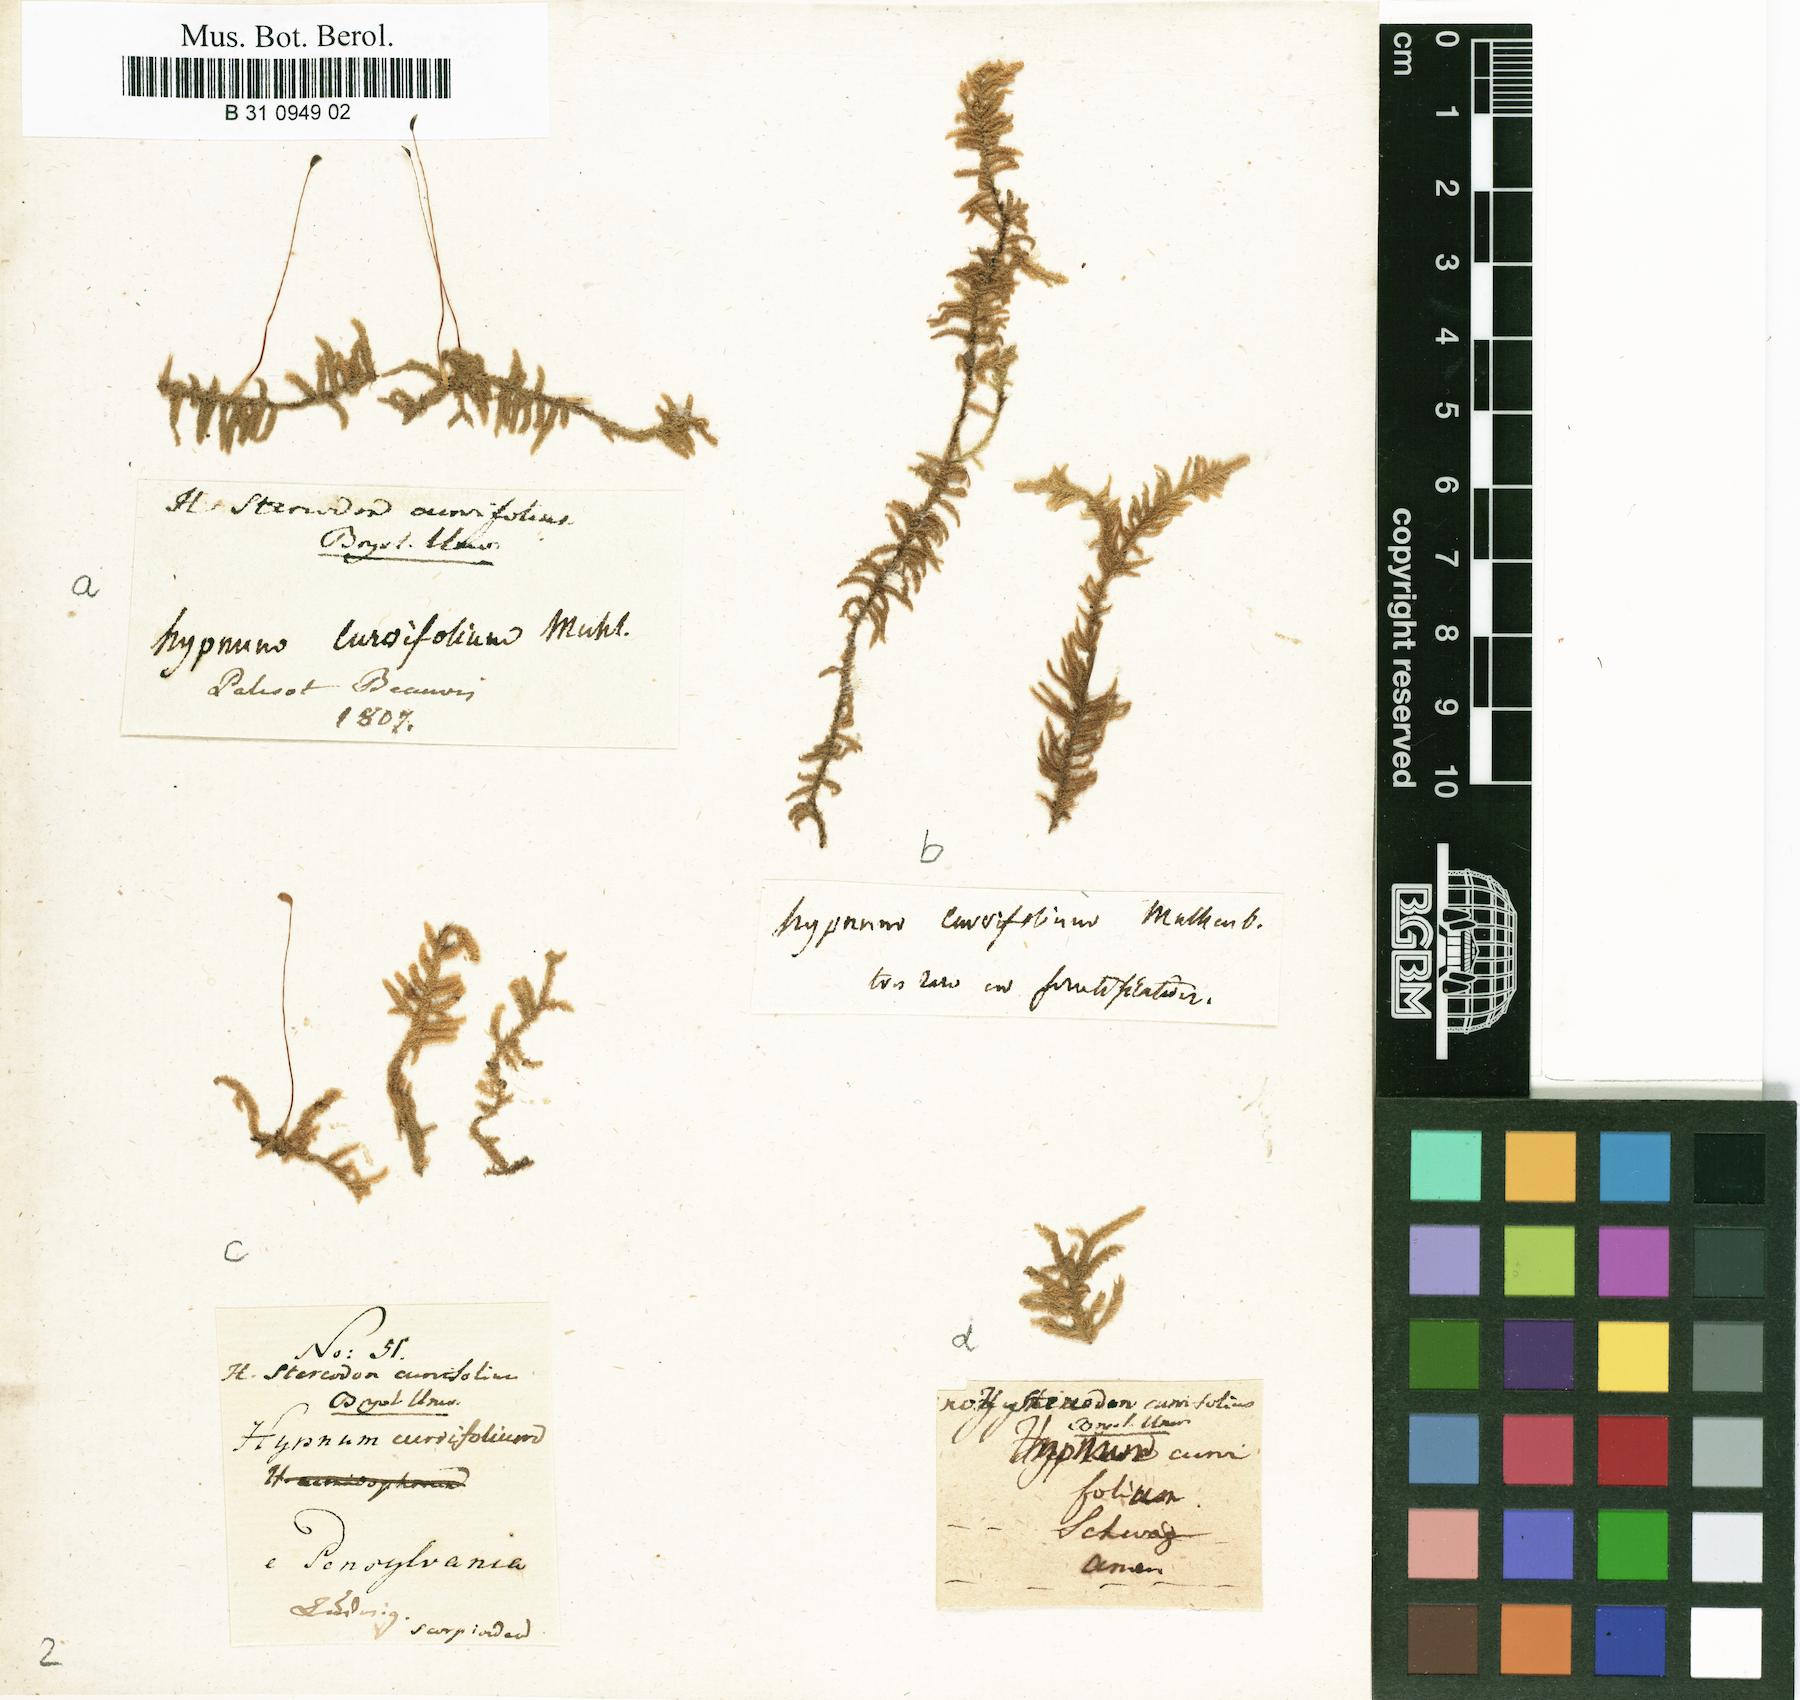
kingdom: Plantae
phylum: Bryophyta
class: Bryopsida
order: Hypnales
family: Pylaisiaceae
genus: Calliergonella
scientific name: Calliergonella curvifolia
